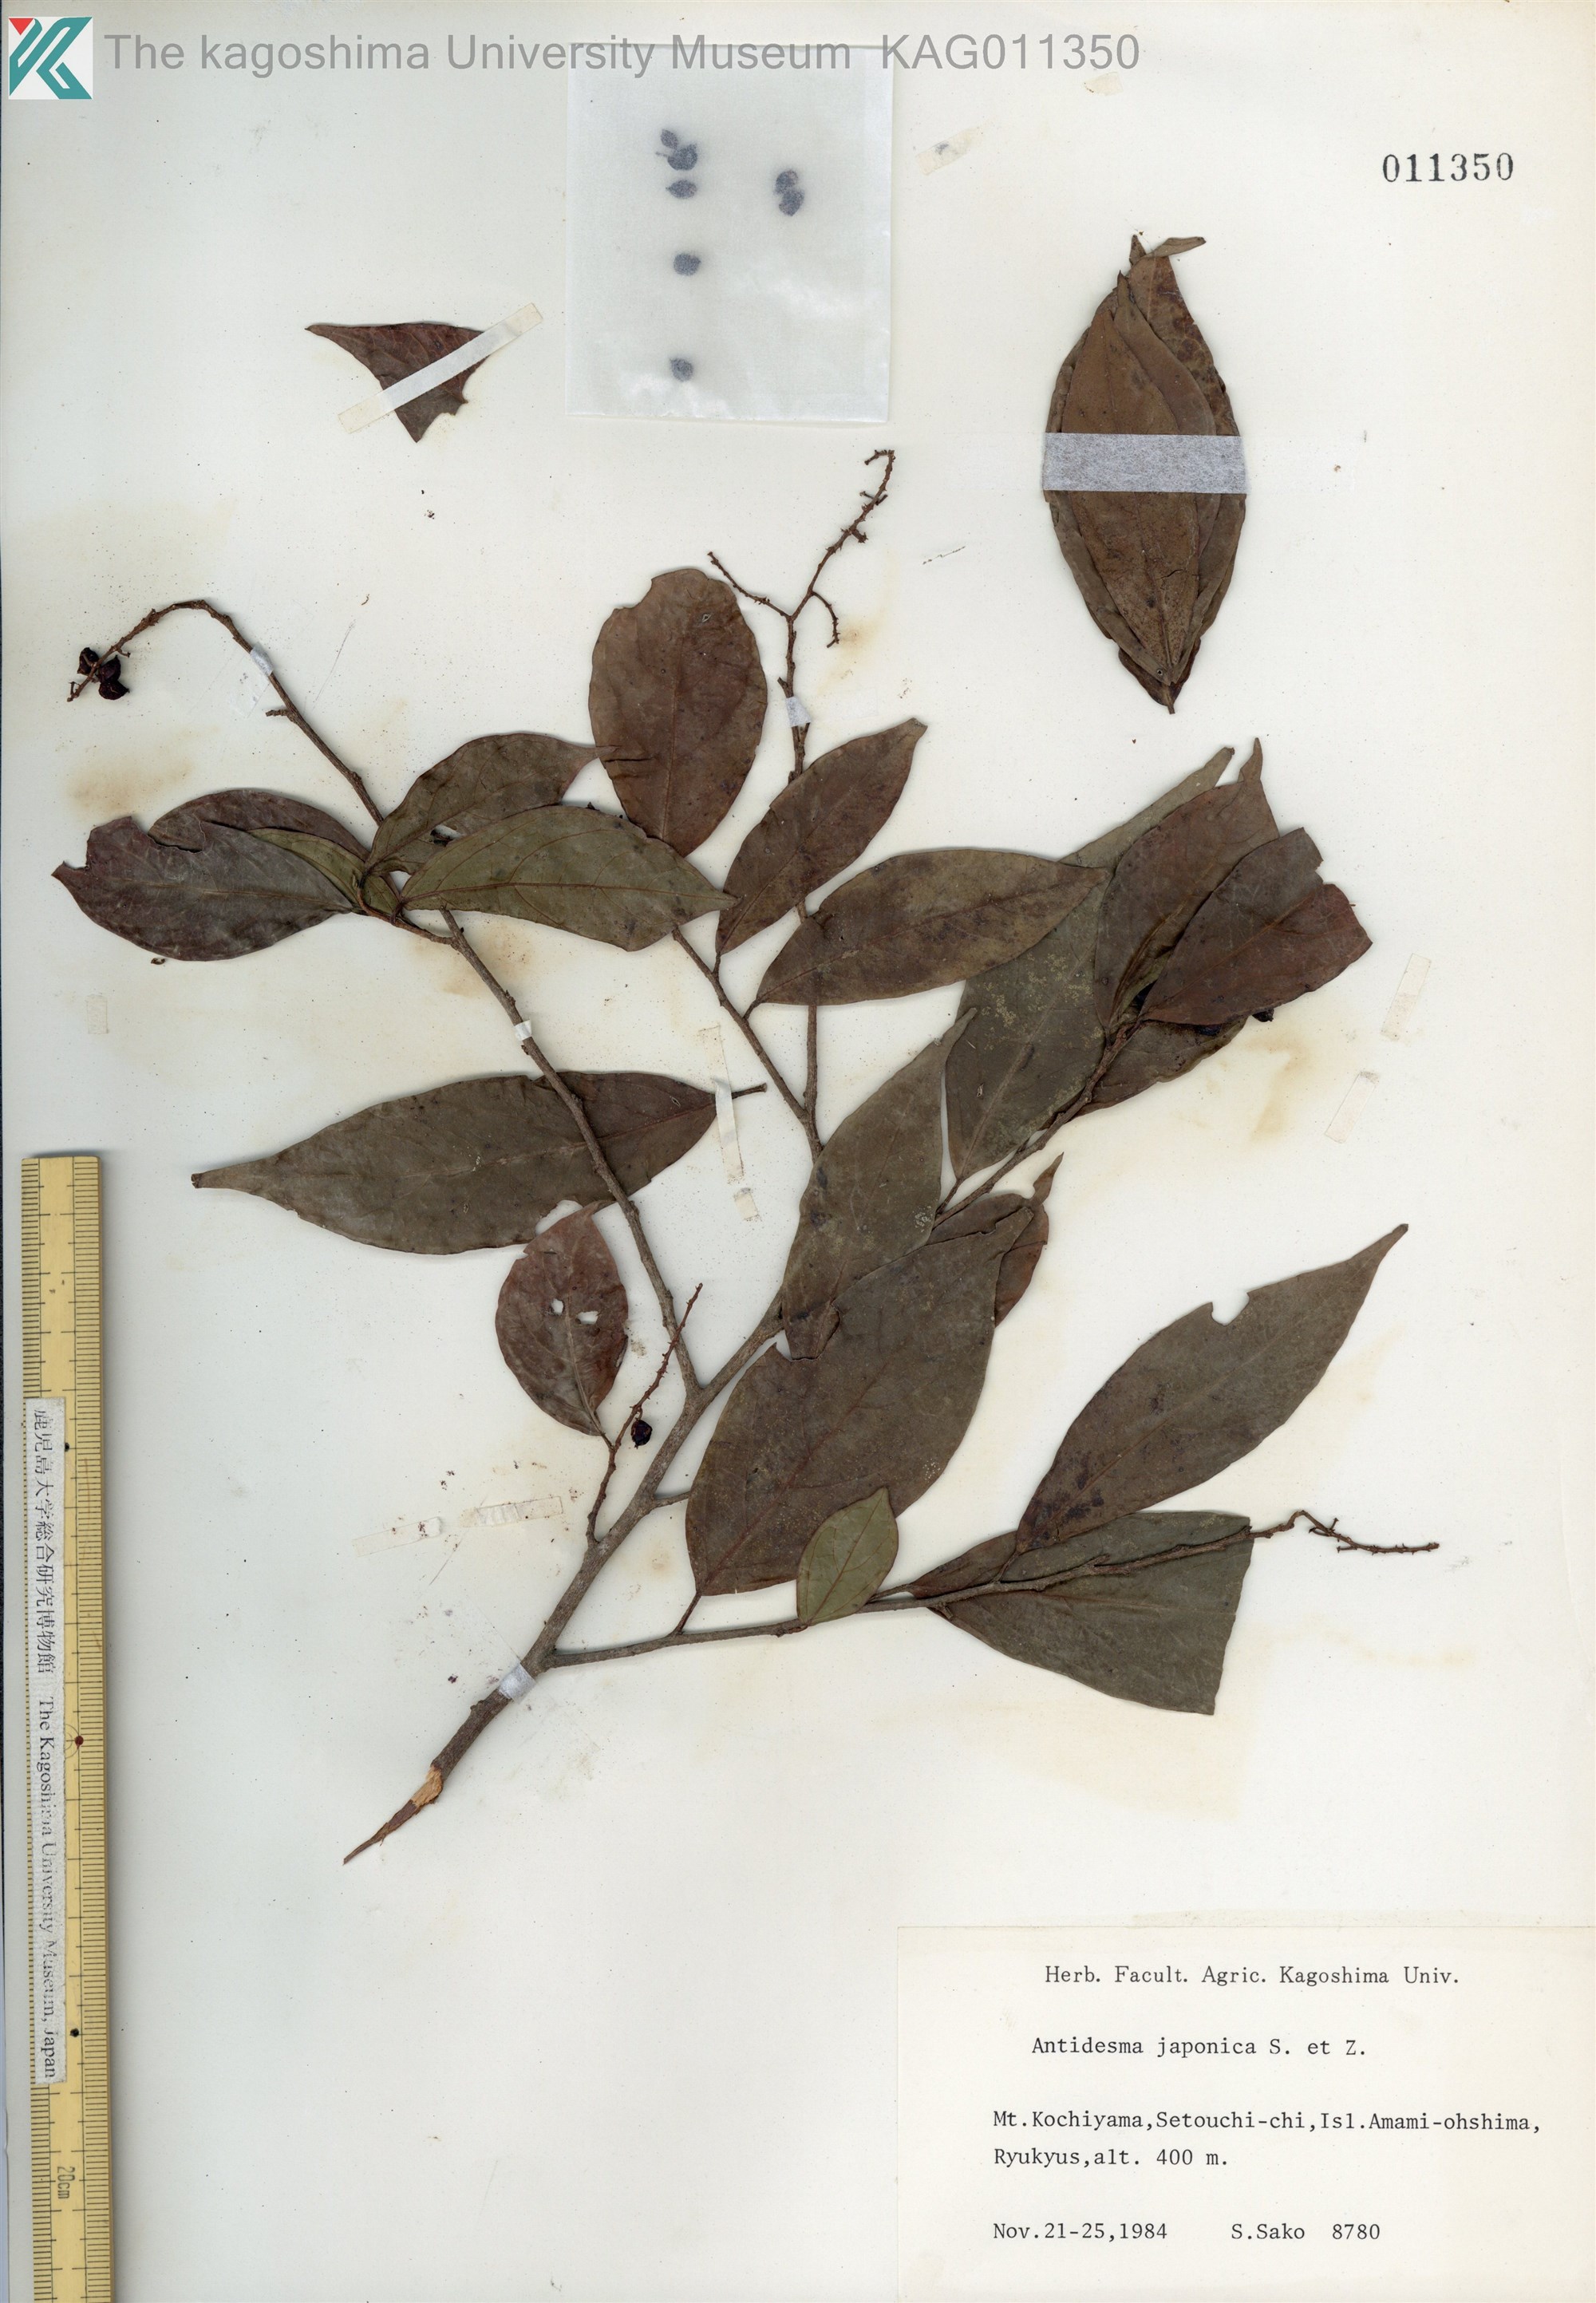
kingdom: Plantae
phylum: Tracheophyta
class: Magnoliopsida
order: Malpighiales
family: Phyllanthaceae
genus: Antidesma
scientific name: Antidesma japonicum
